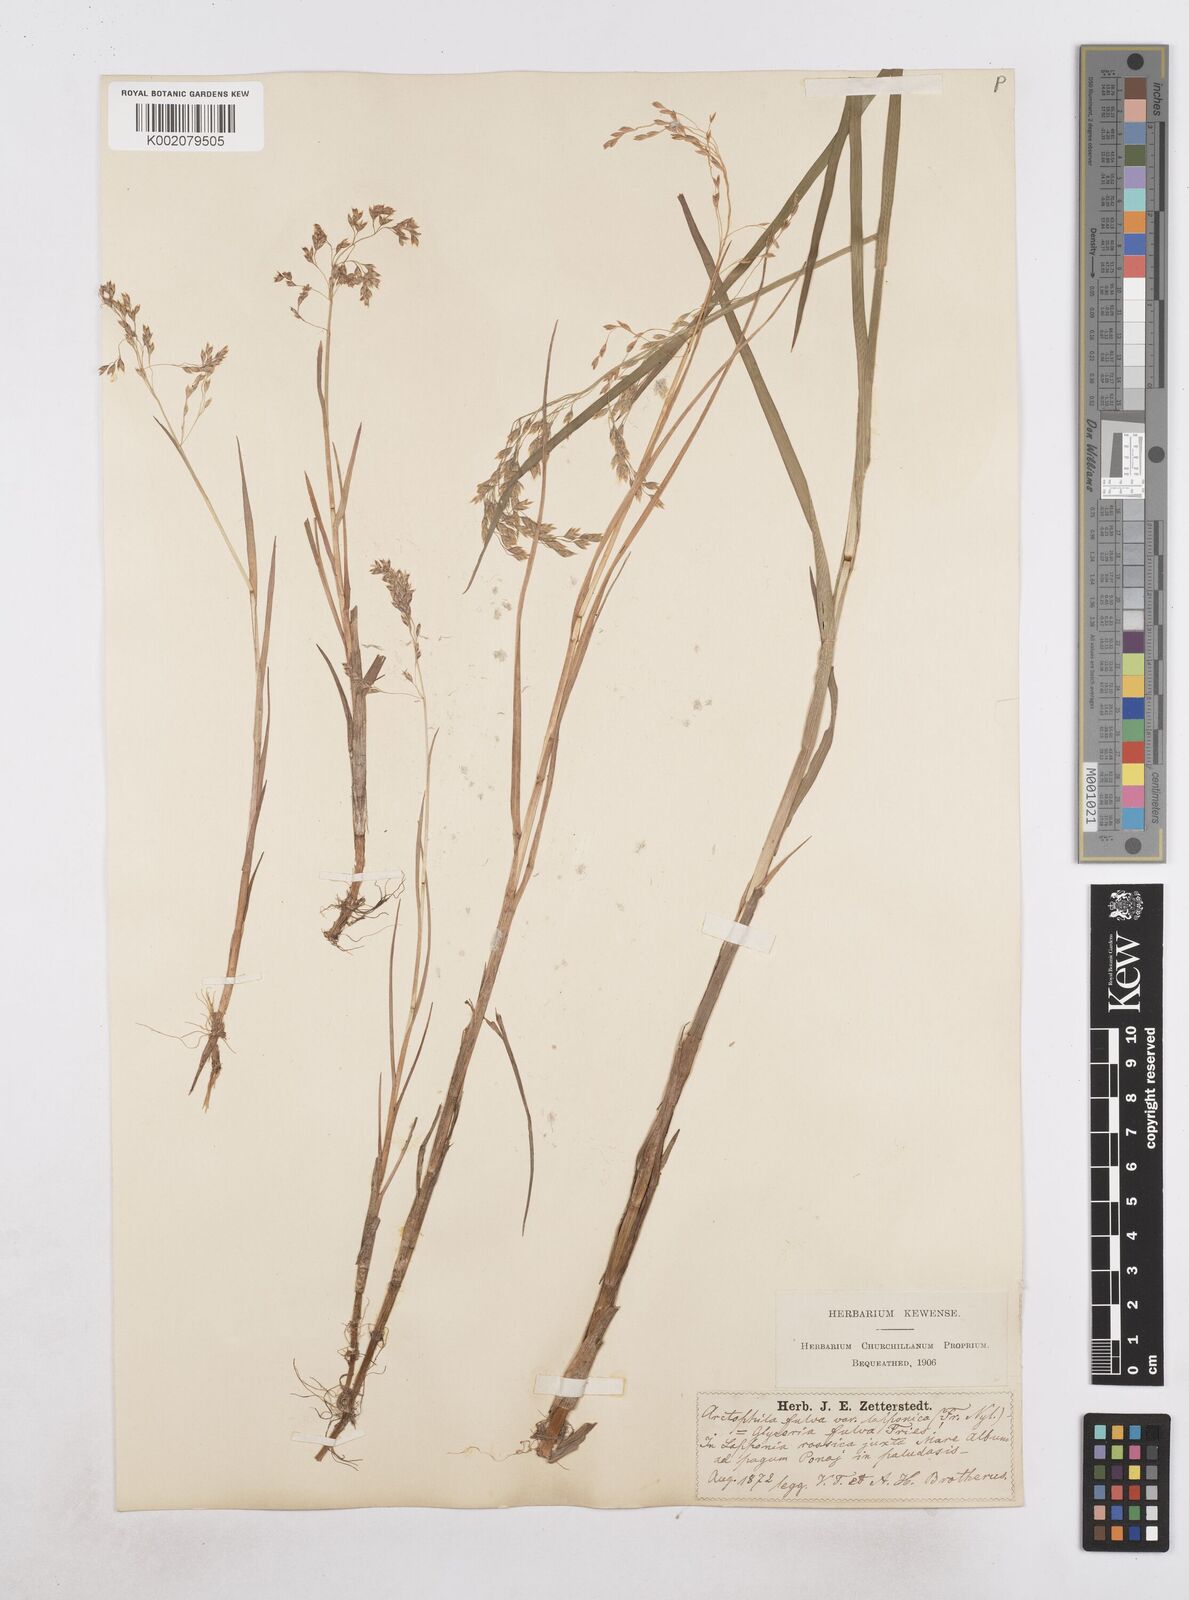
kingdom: Plantae
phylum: Tracheophyta
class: Liliopsida
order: Poales
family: Poaceae
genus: Dupontia
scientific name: Dupontia fulva
